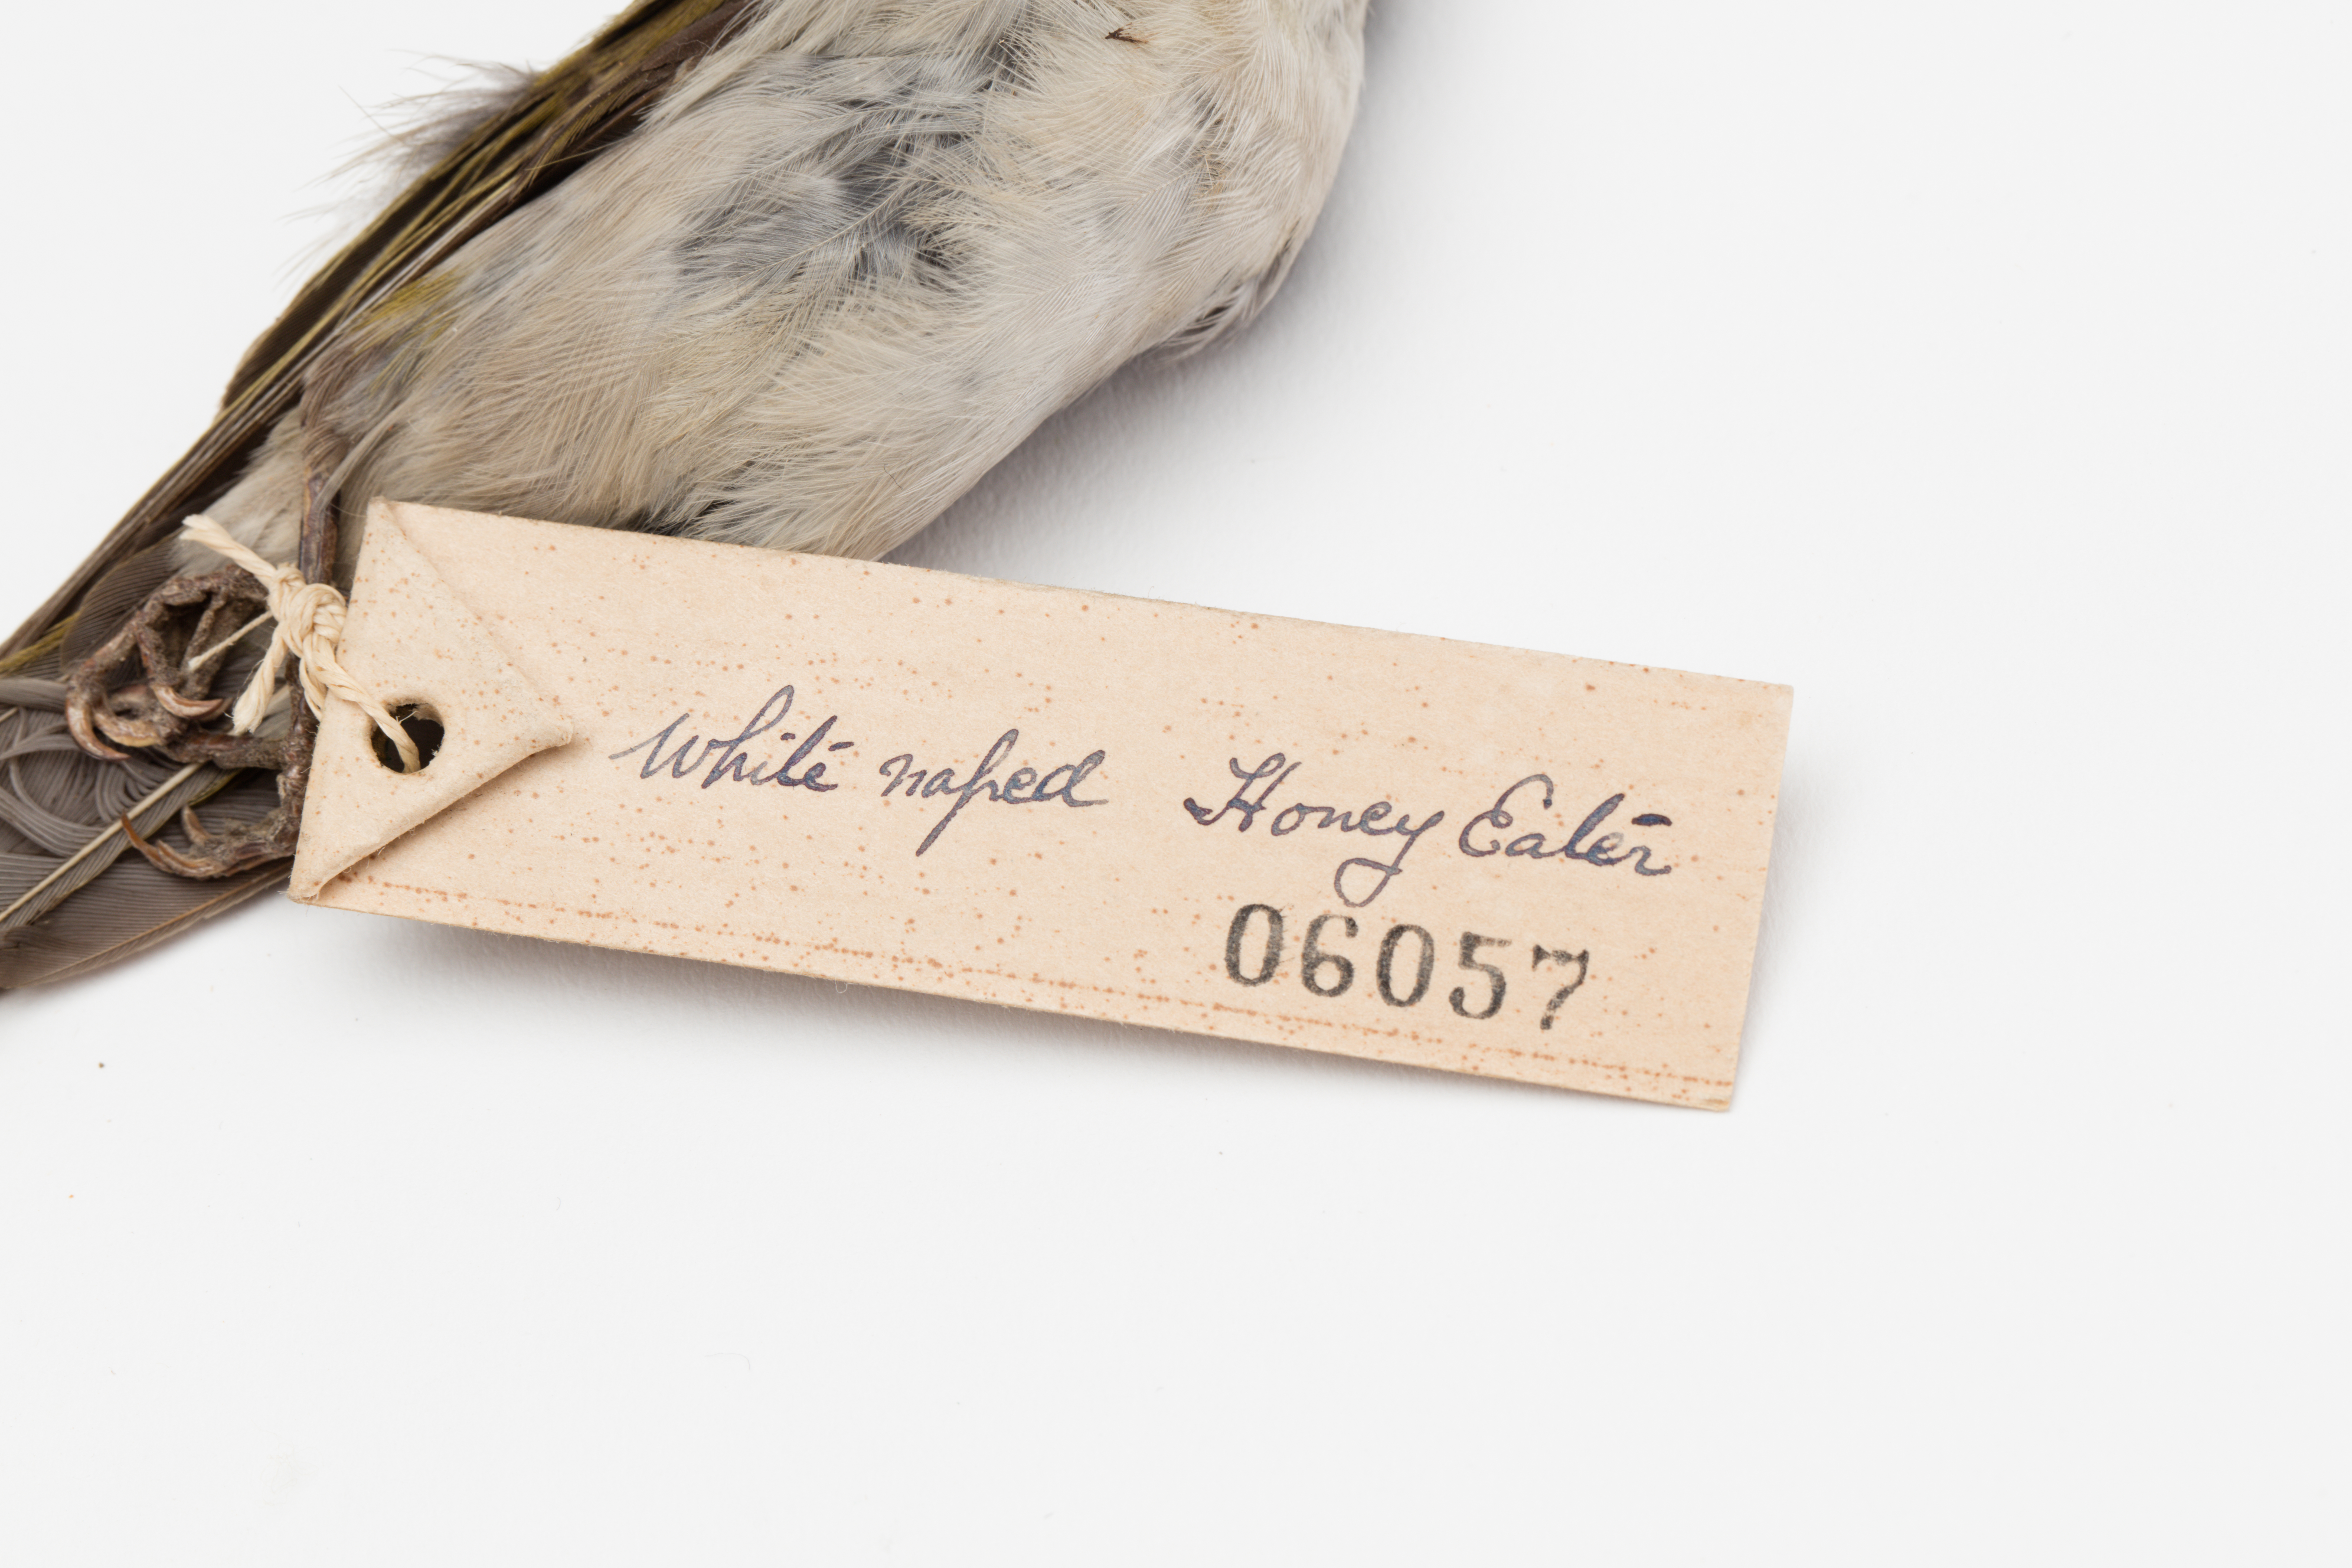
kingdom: Animalia
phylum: Chordata
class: Aves
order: Passeriformes
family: Meliphagidae
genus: Melithreptus
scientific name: Melithreptus lunatus
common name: White-naped honeyeater
